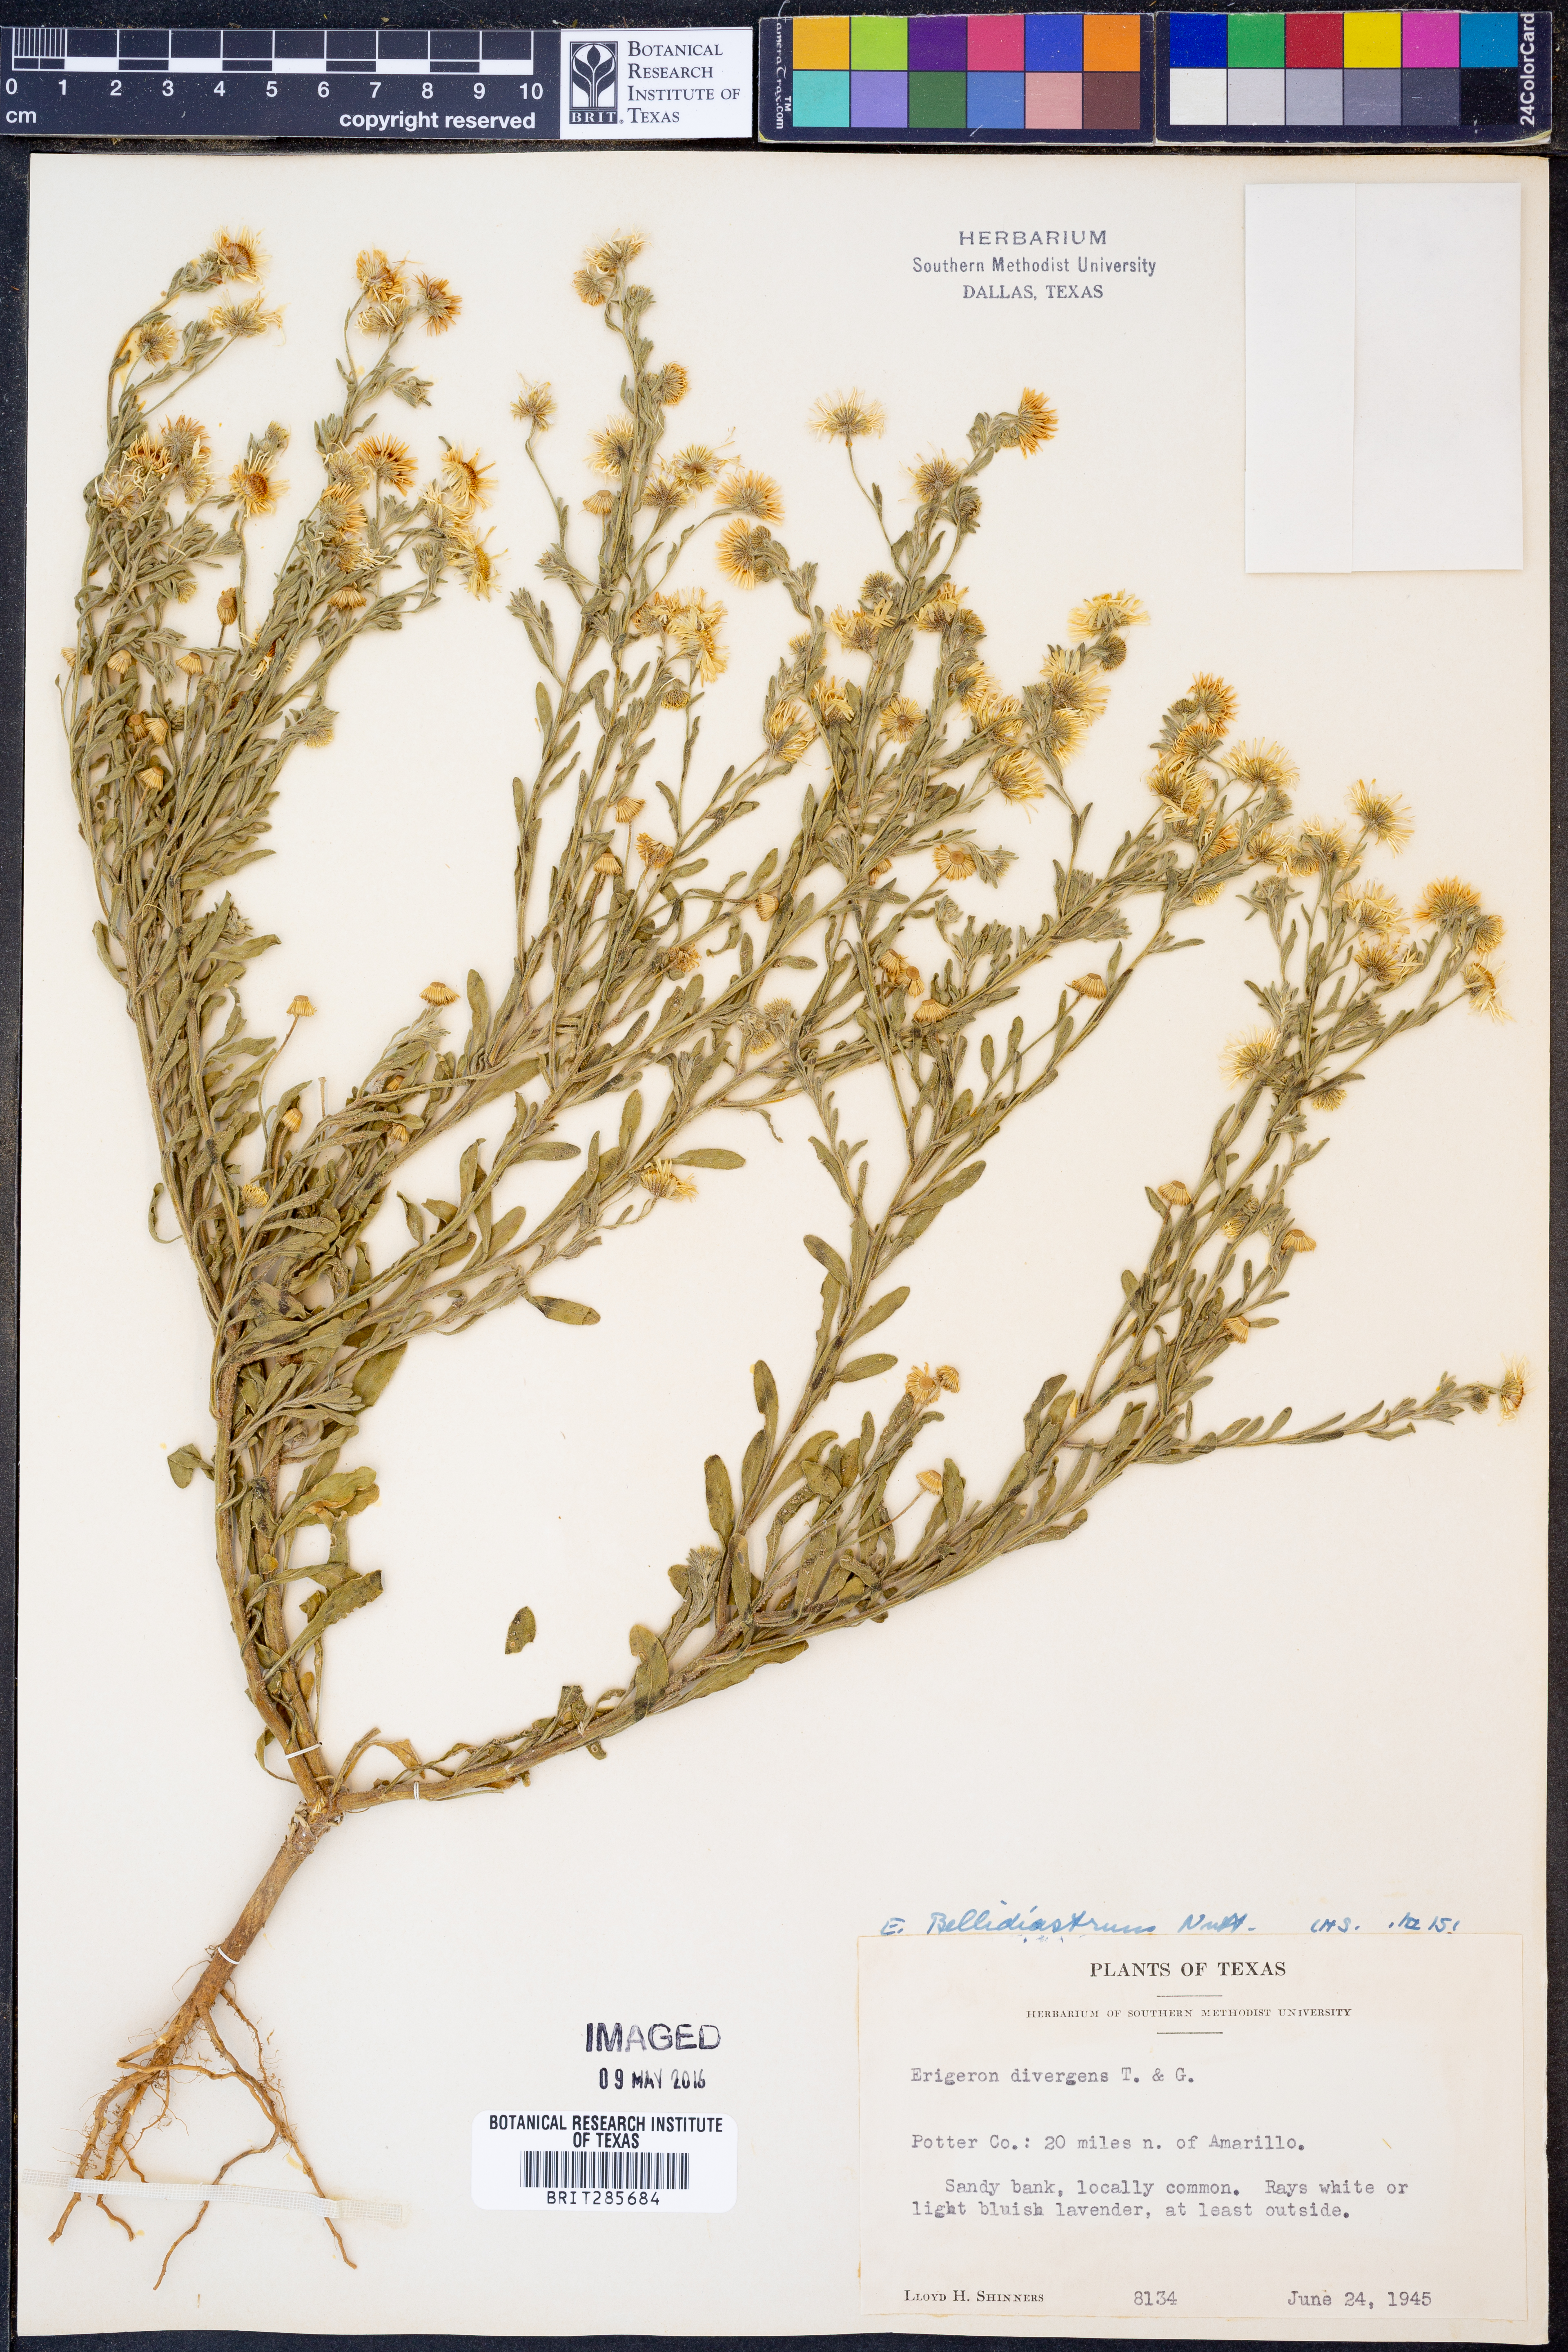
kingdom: Plantae
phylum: Tracheophyta
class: Magnoliopsida
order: Asterales
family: Asteraceae
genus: Erigeron
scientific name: Erigeron bellidiastrum
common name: Sand fleabane
